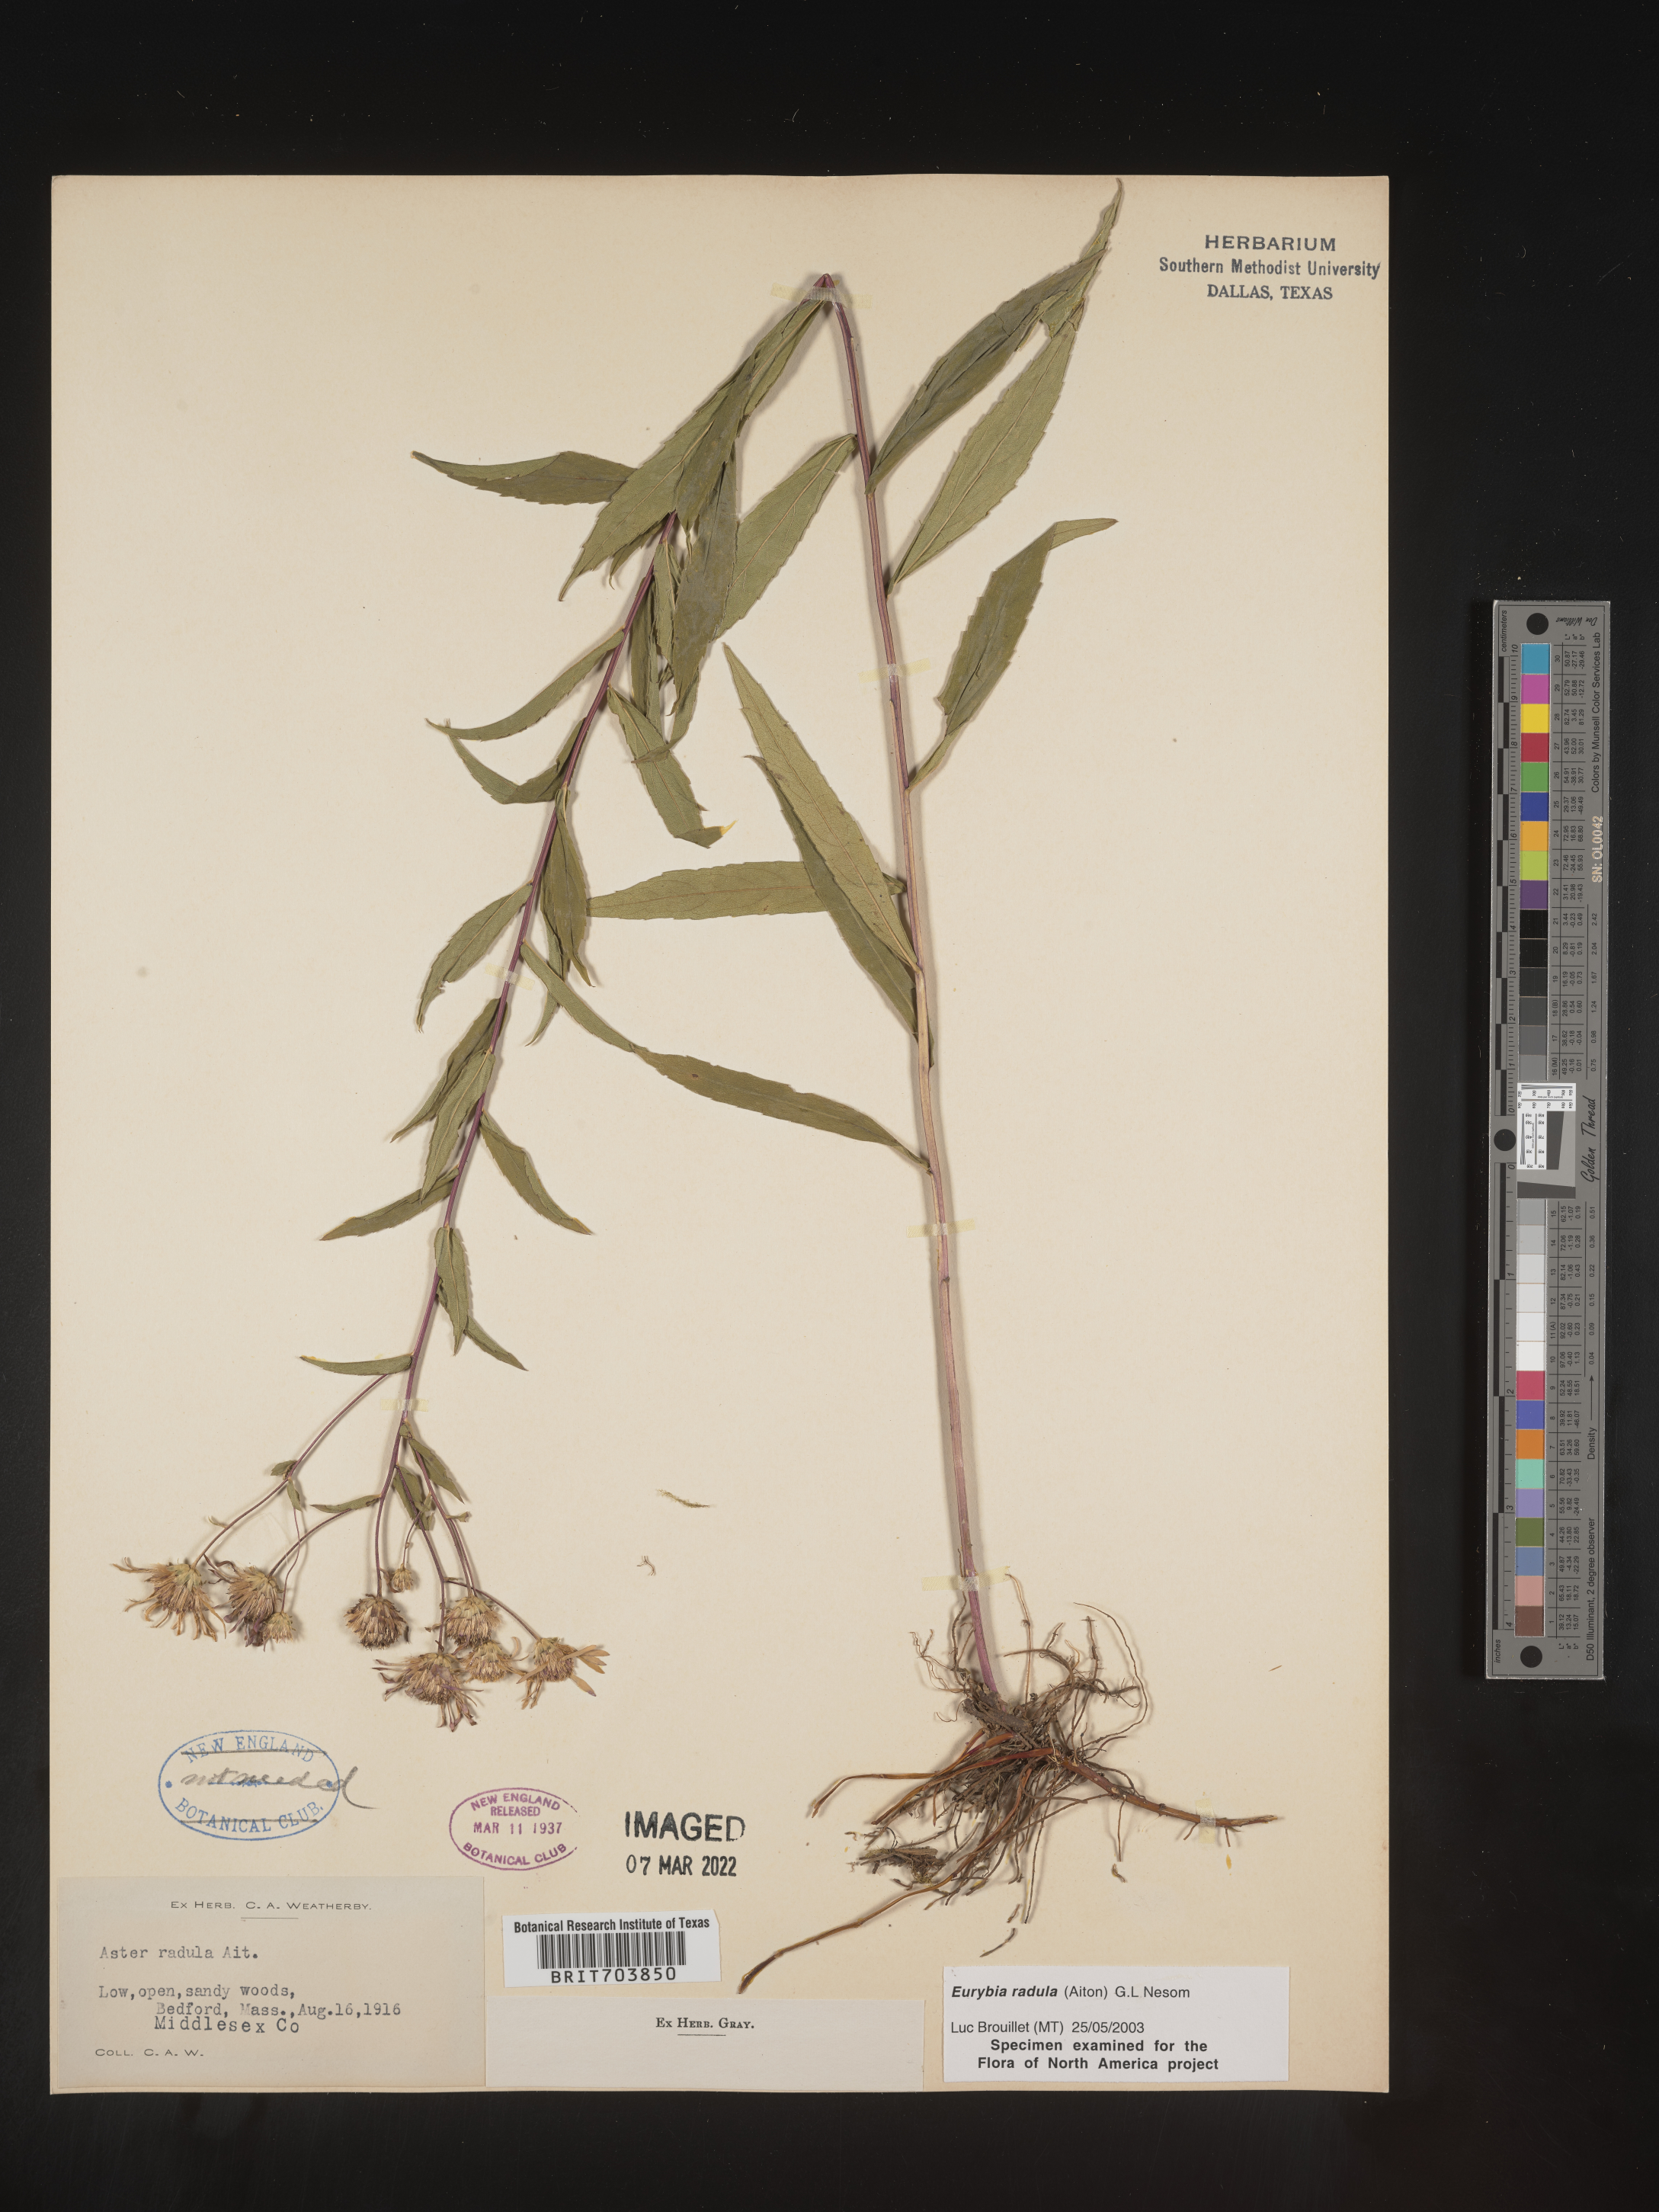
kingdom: Plantae
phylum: Tracheophyta
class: Magnoliopsida
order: Asterales
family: Asteraceae
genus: Eurybia
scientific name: Eurybia radula
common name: Low rough aster
